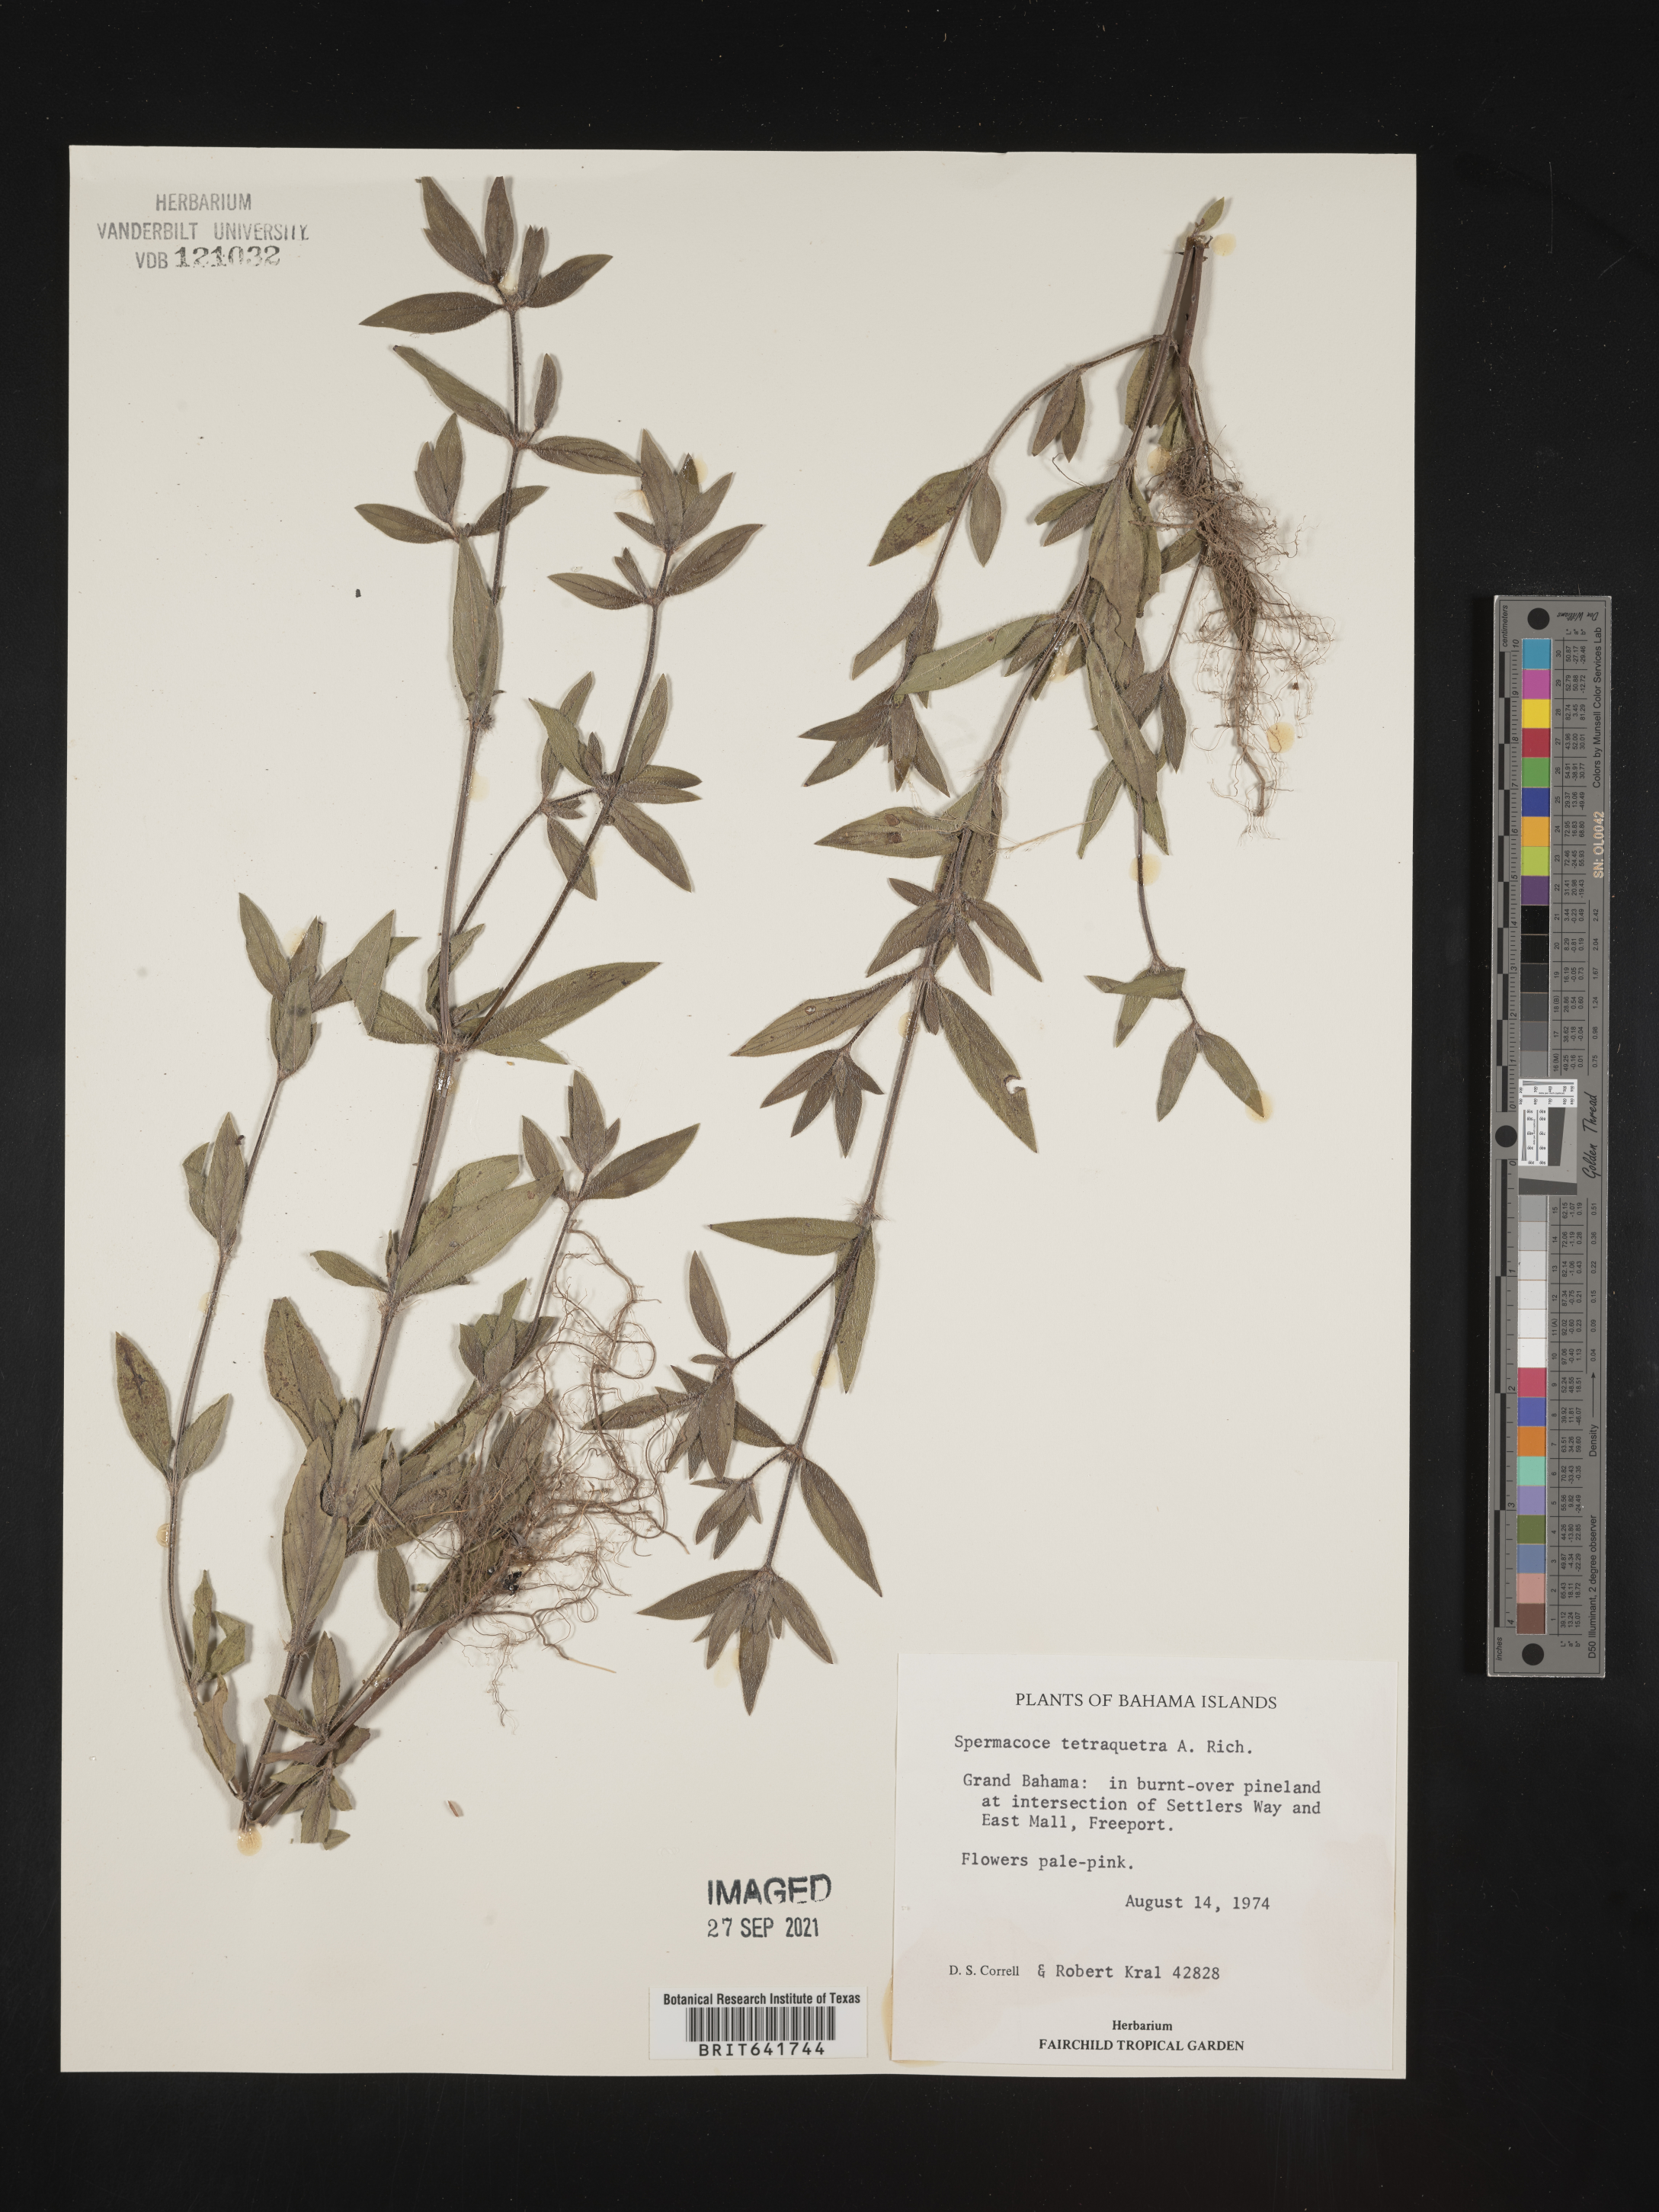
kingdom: Plantae
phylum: Tracheophyta
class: Magnoliopsida
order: Gentianales
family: Rubiaceae
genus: Spermacoce
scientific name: Spermacoce
